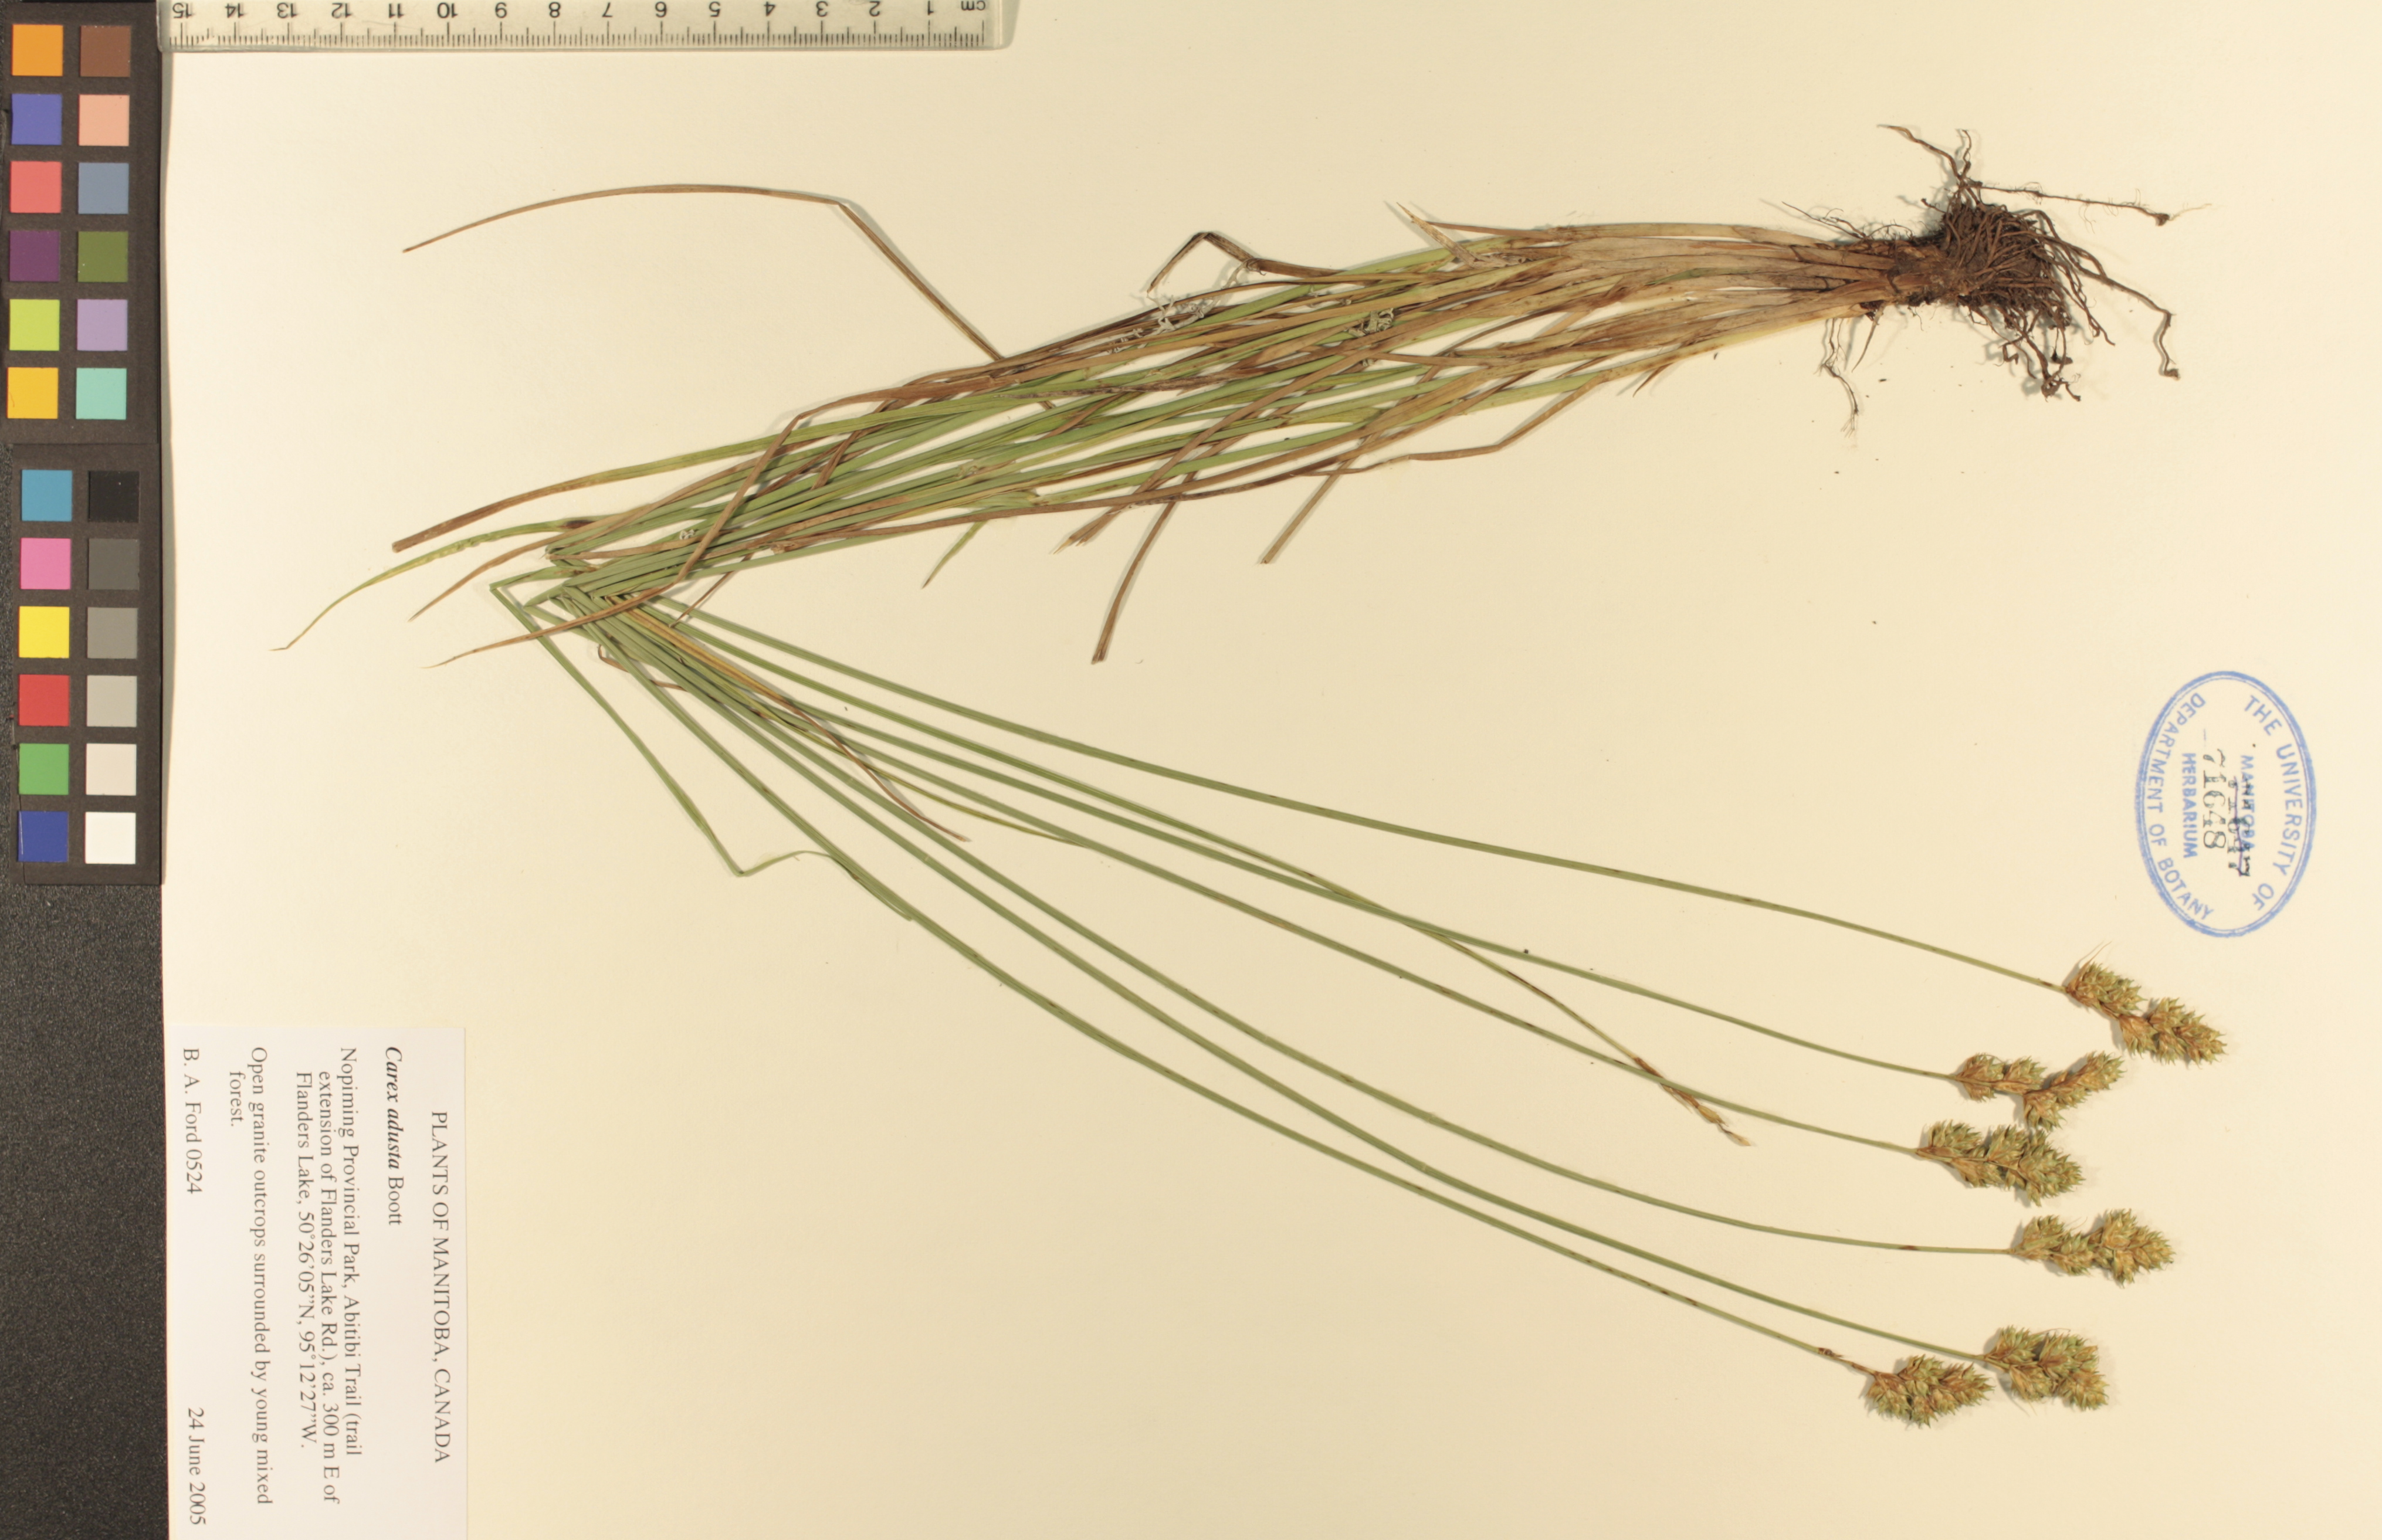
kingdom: Plantae
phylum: Tracheophyta
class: Liliopsida
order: Poales
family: Cyperaceae
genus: Carex
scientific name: Carex adusta
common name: Browned sedge
